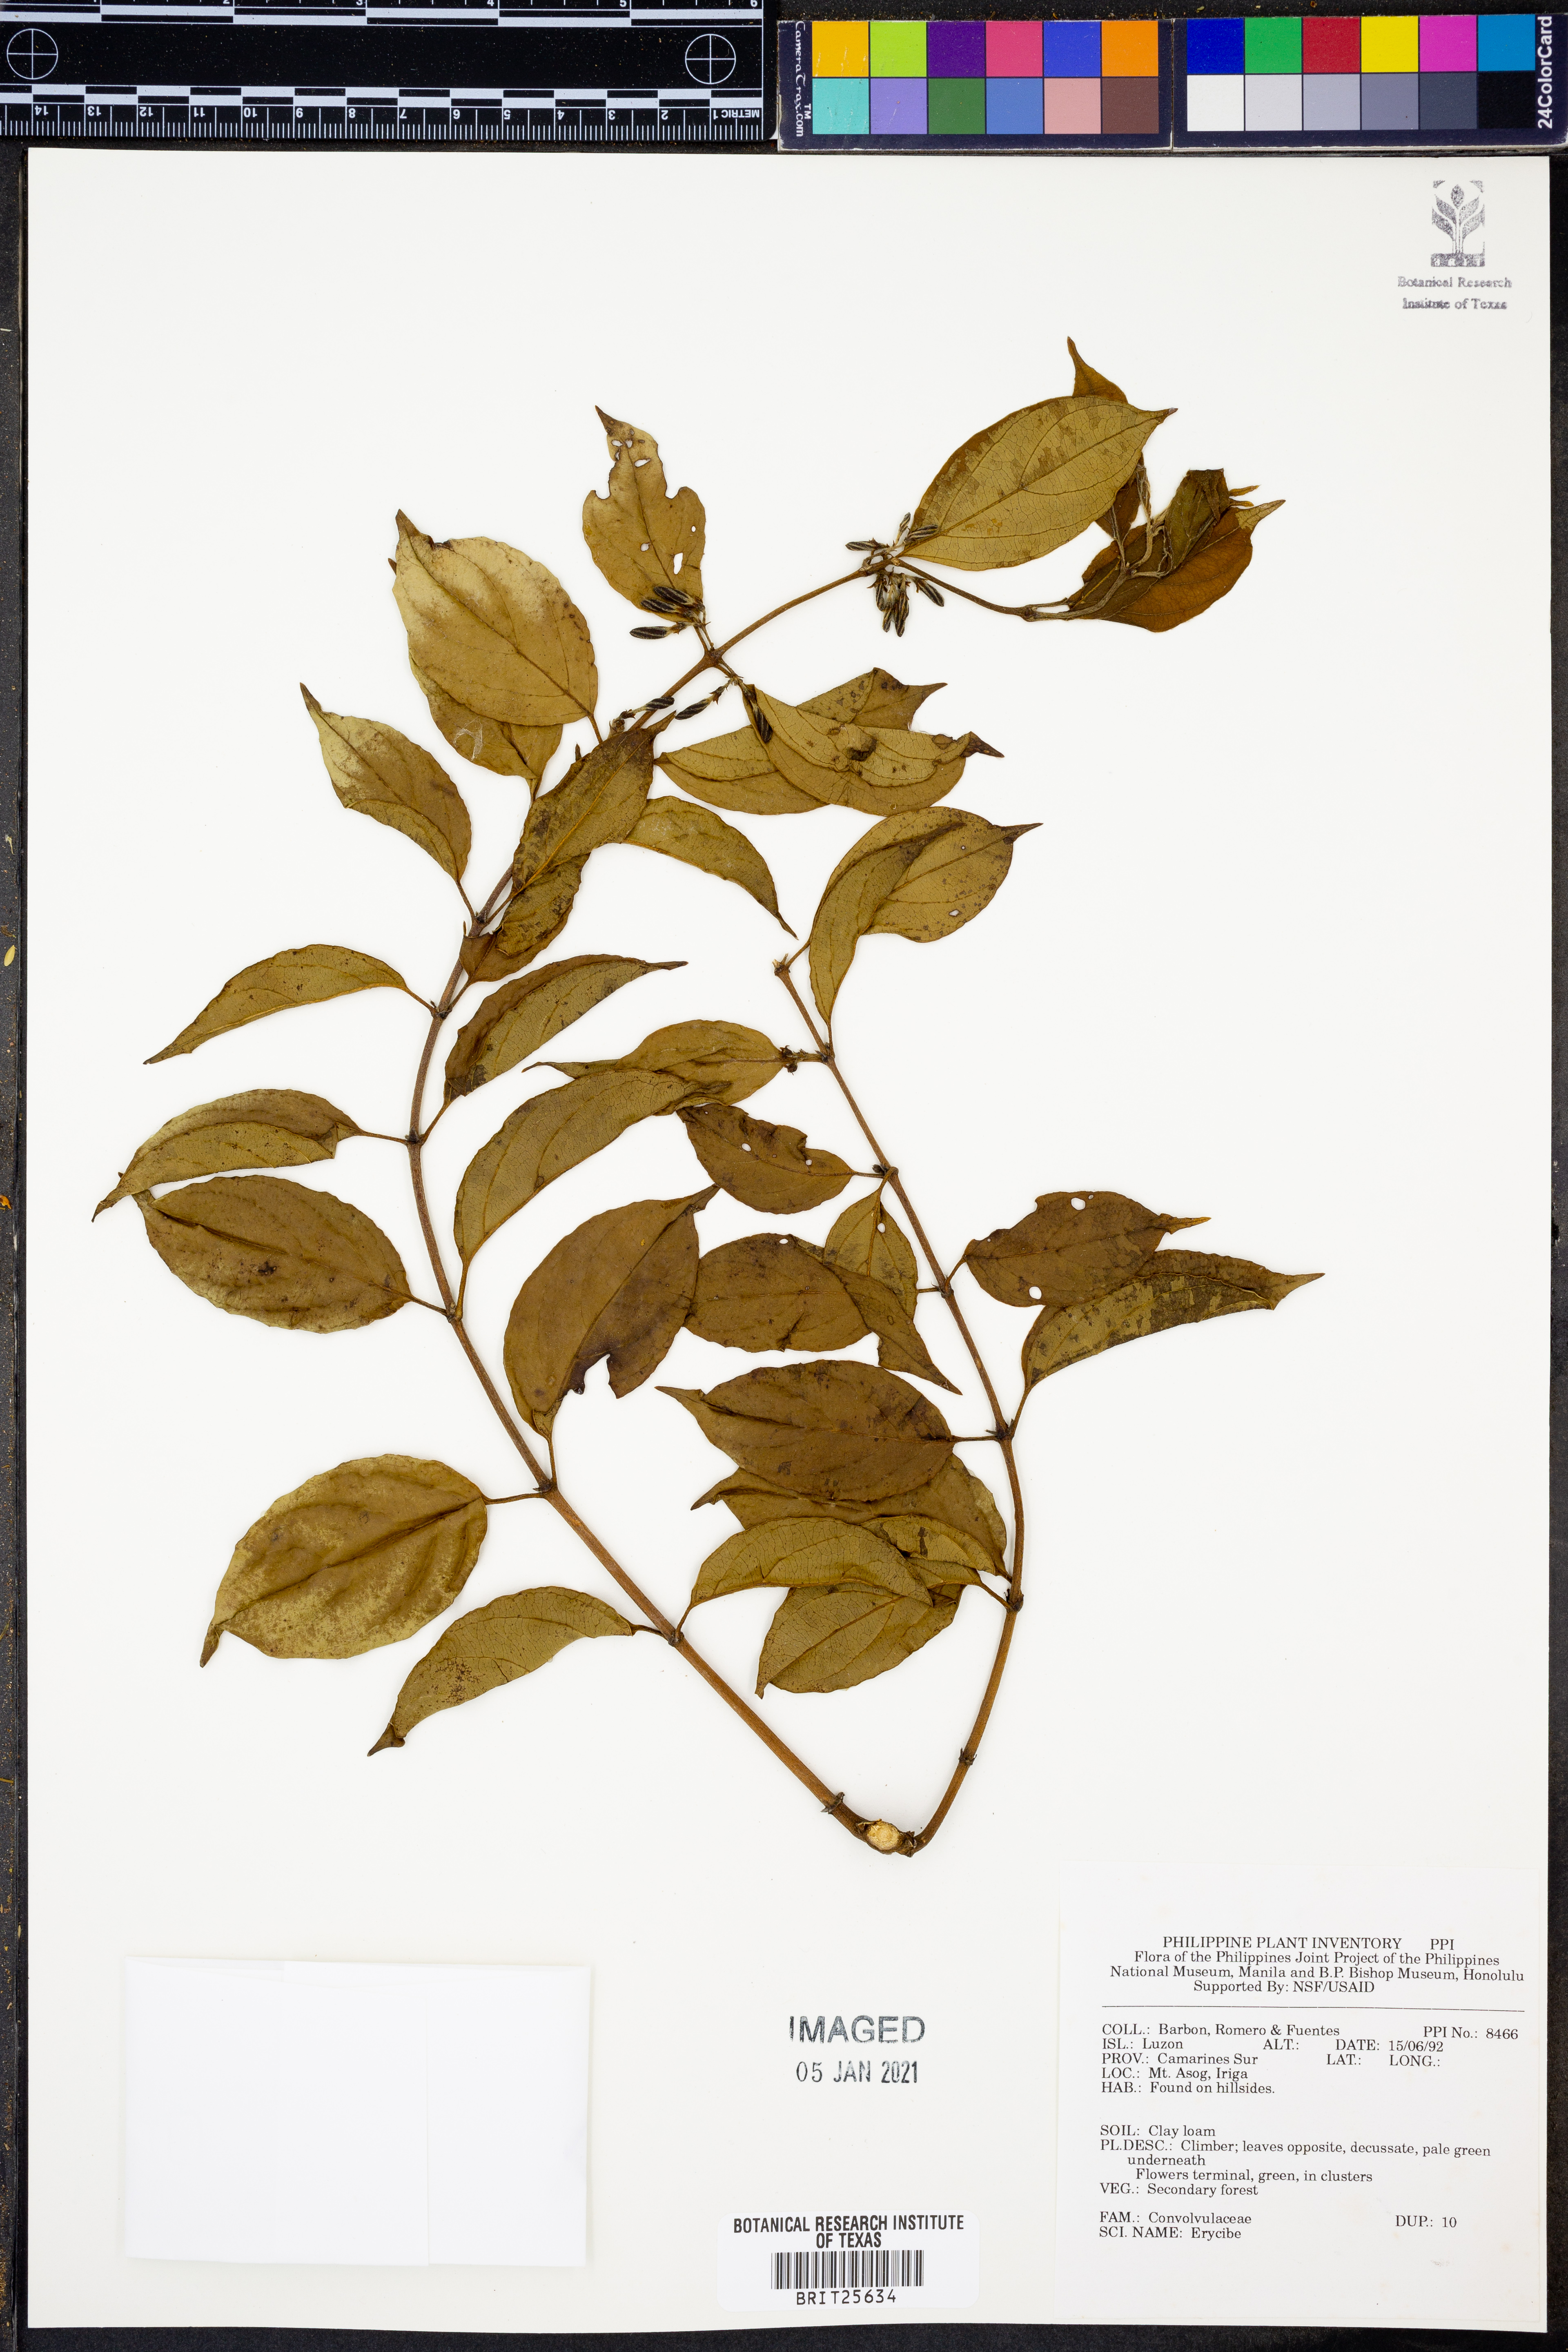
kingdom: Plantae
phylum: Tracheophyta
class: Magnoliopsida
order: Solanales
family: Convolvulaceae
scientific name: Convolvulaceae
